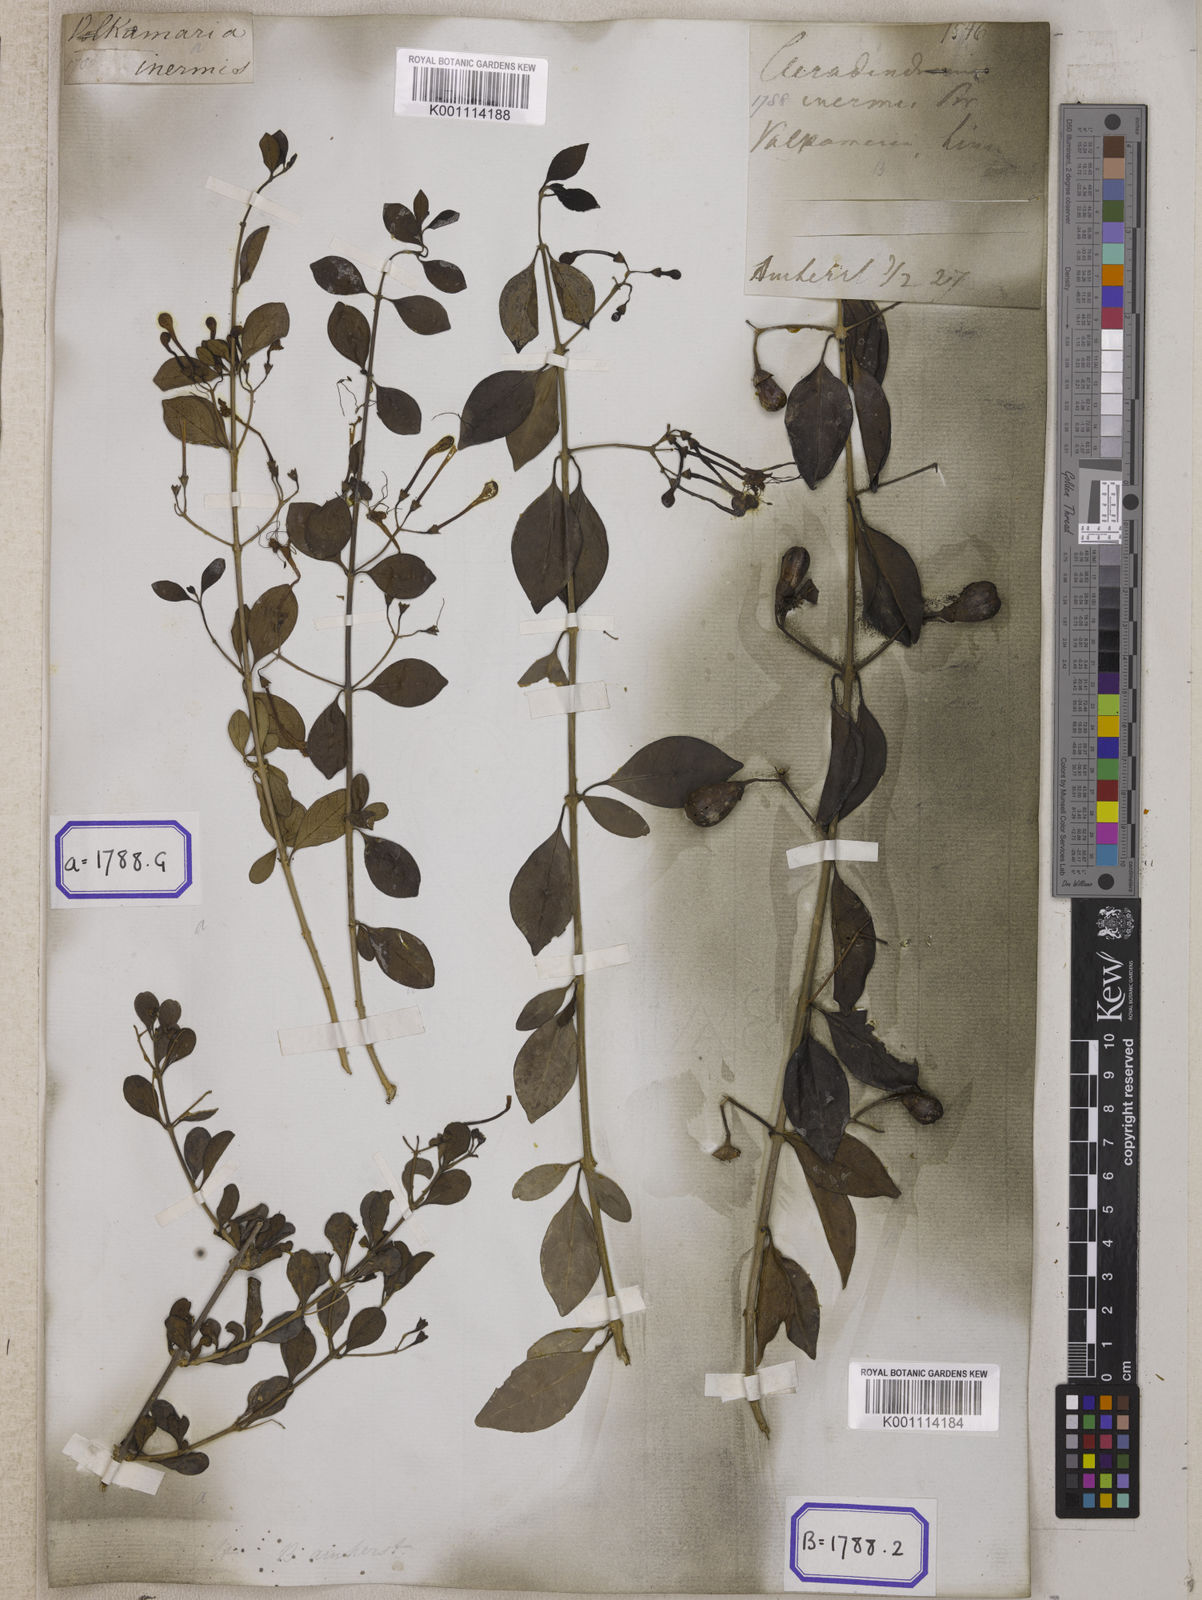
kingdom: Plantae
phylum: Tracheophyta
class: Magnoliopsida
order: Lamiales
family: Lamiaceae
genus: Clerodendrum
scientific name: Clerodendrum
